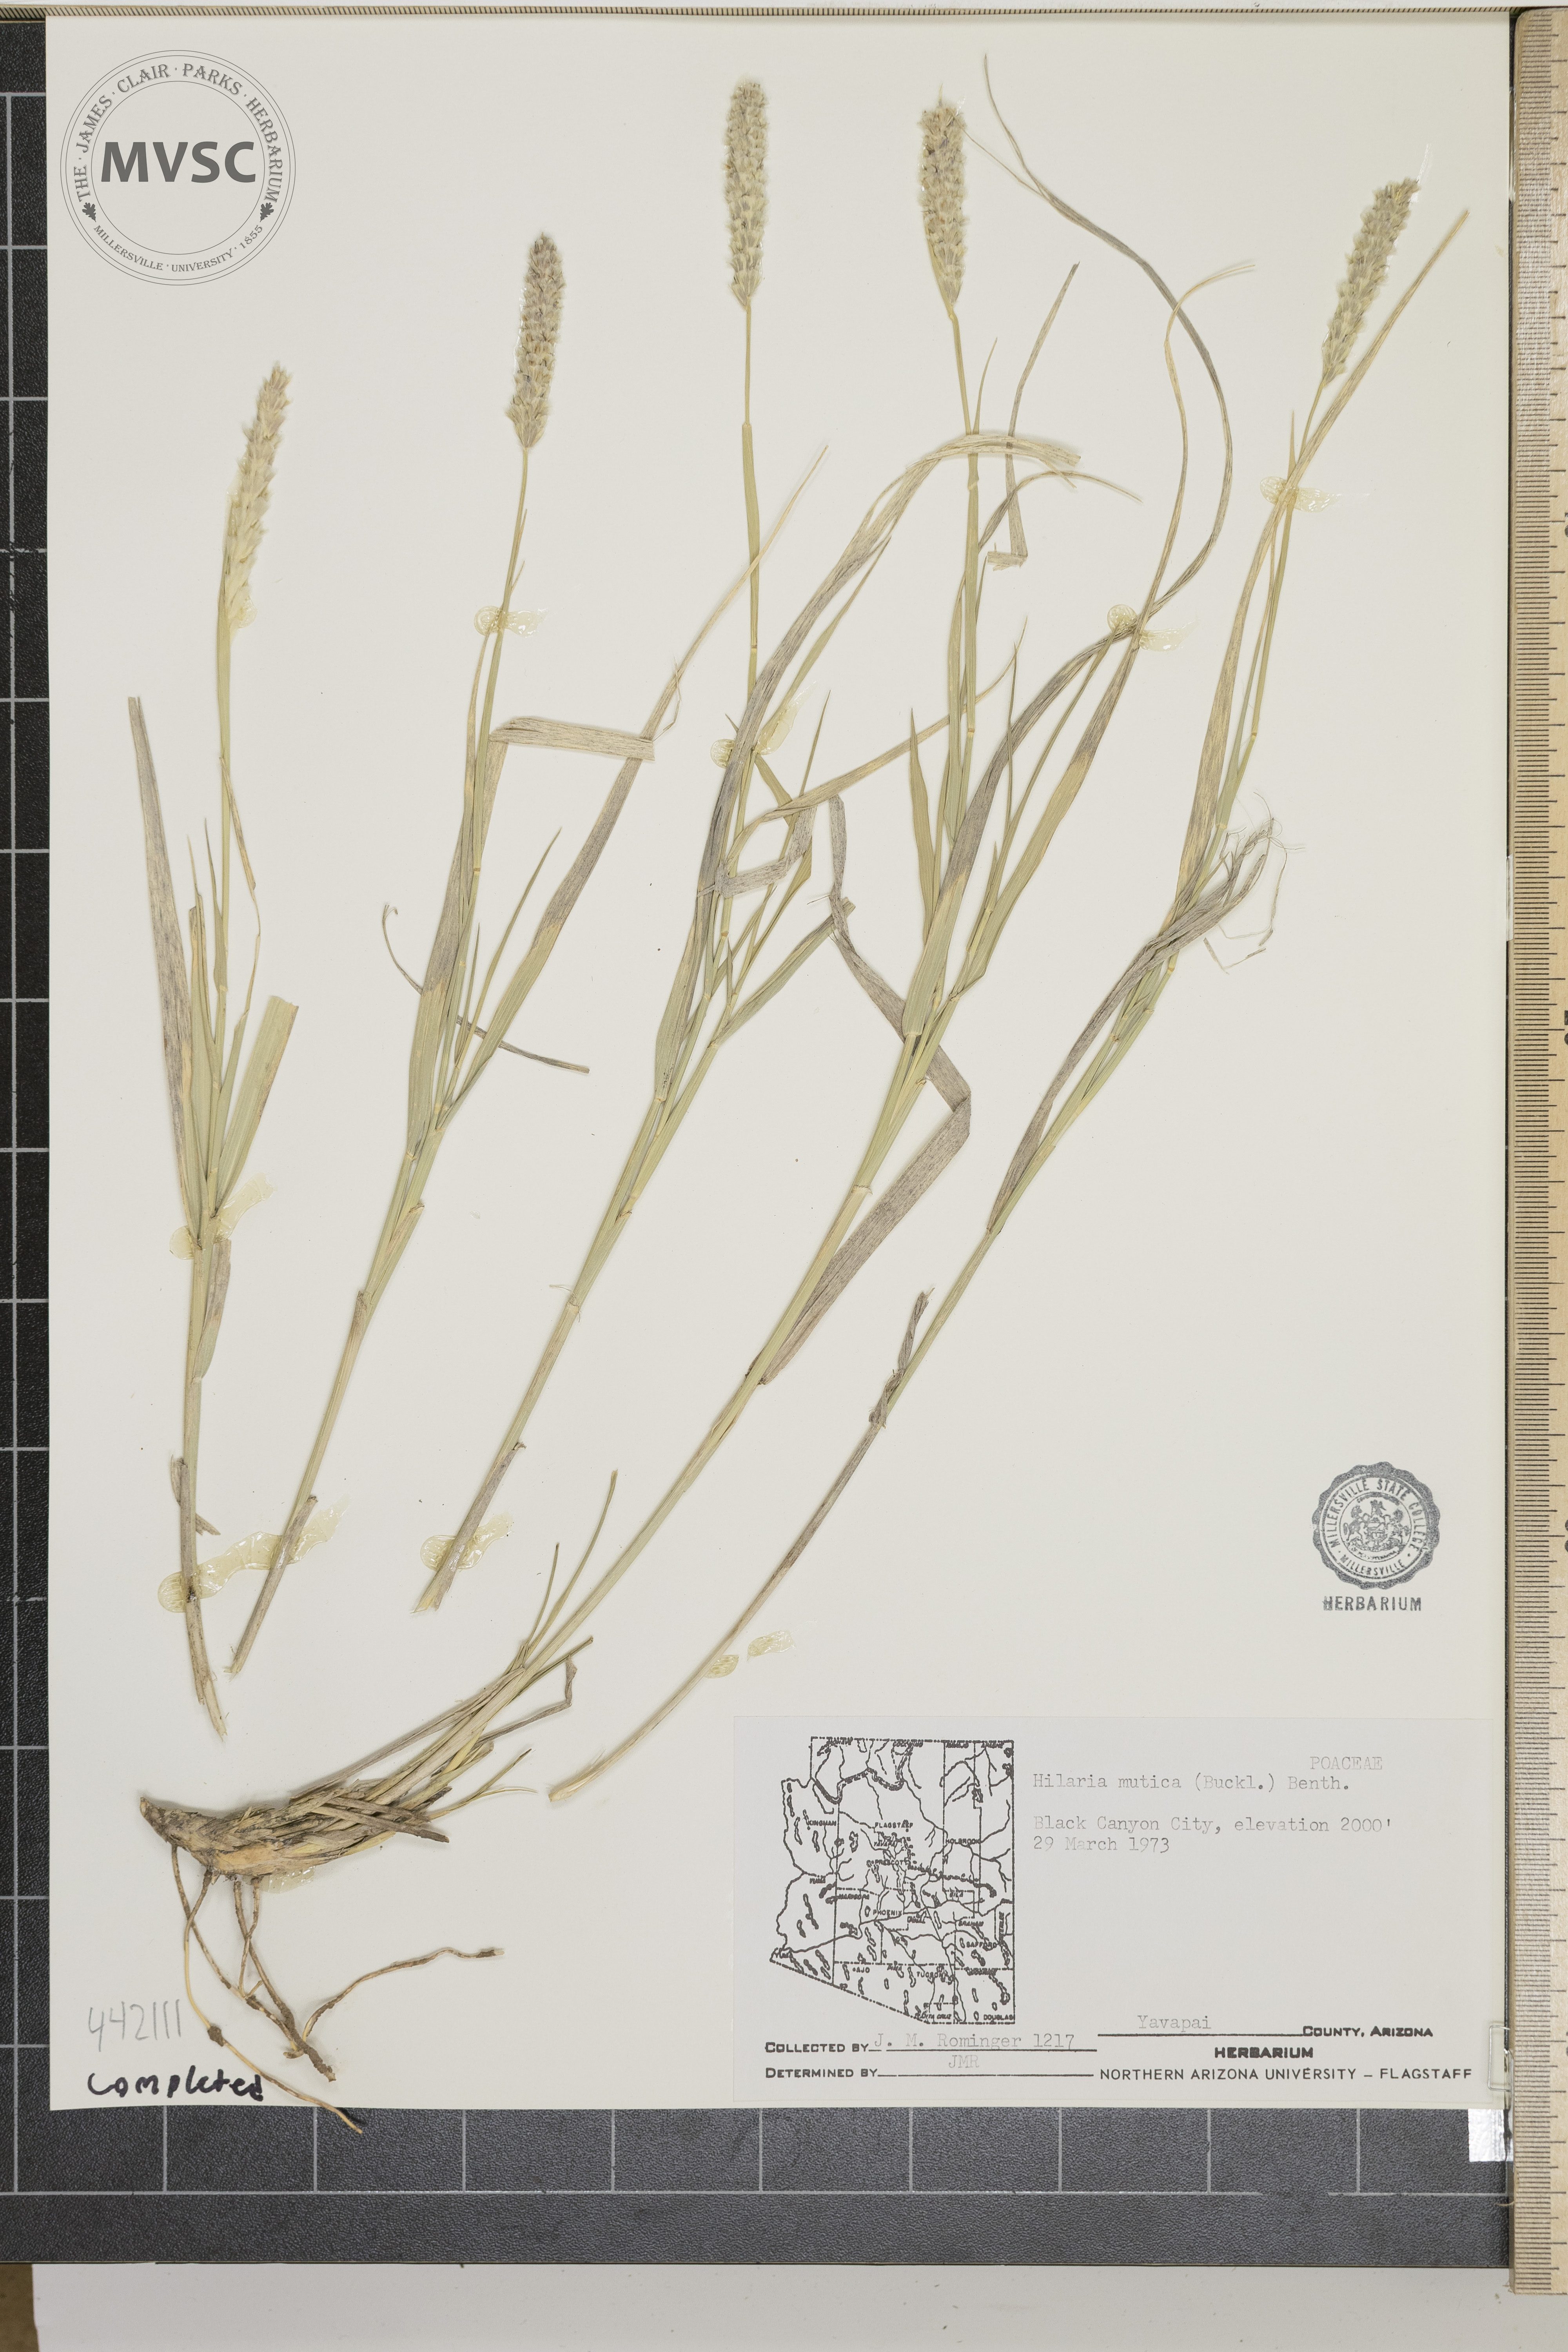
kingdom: Plantae
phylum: Tracheophyta
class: Liliopsida
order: Poales
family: Poaceae
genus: Hilaria
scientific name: Hilaria mutica
